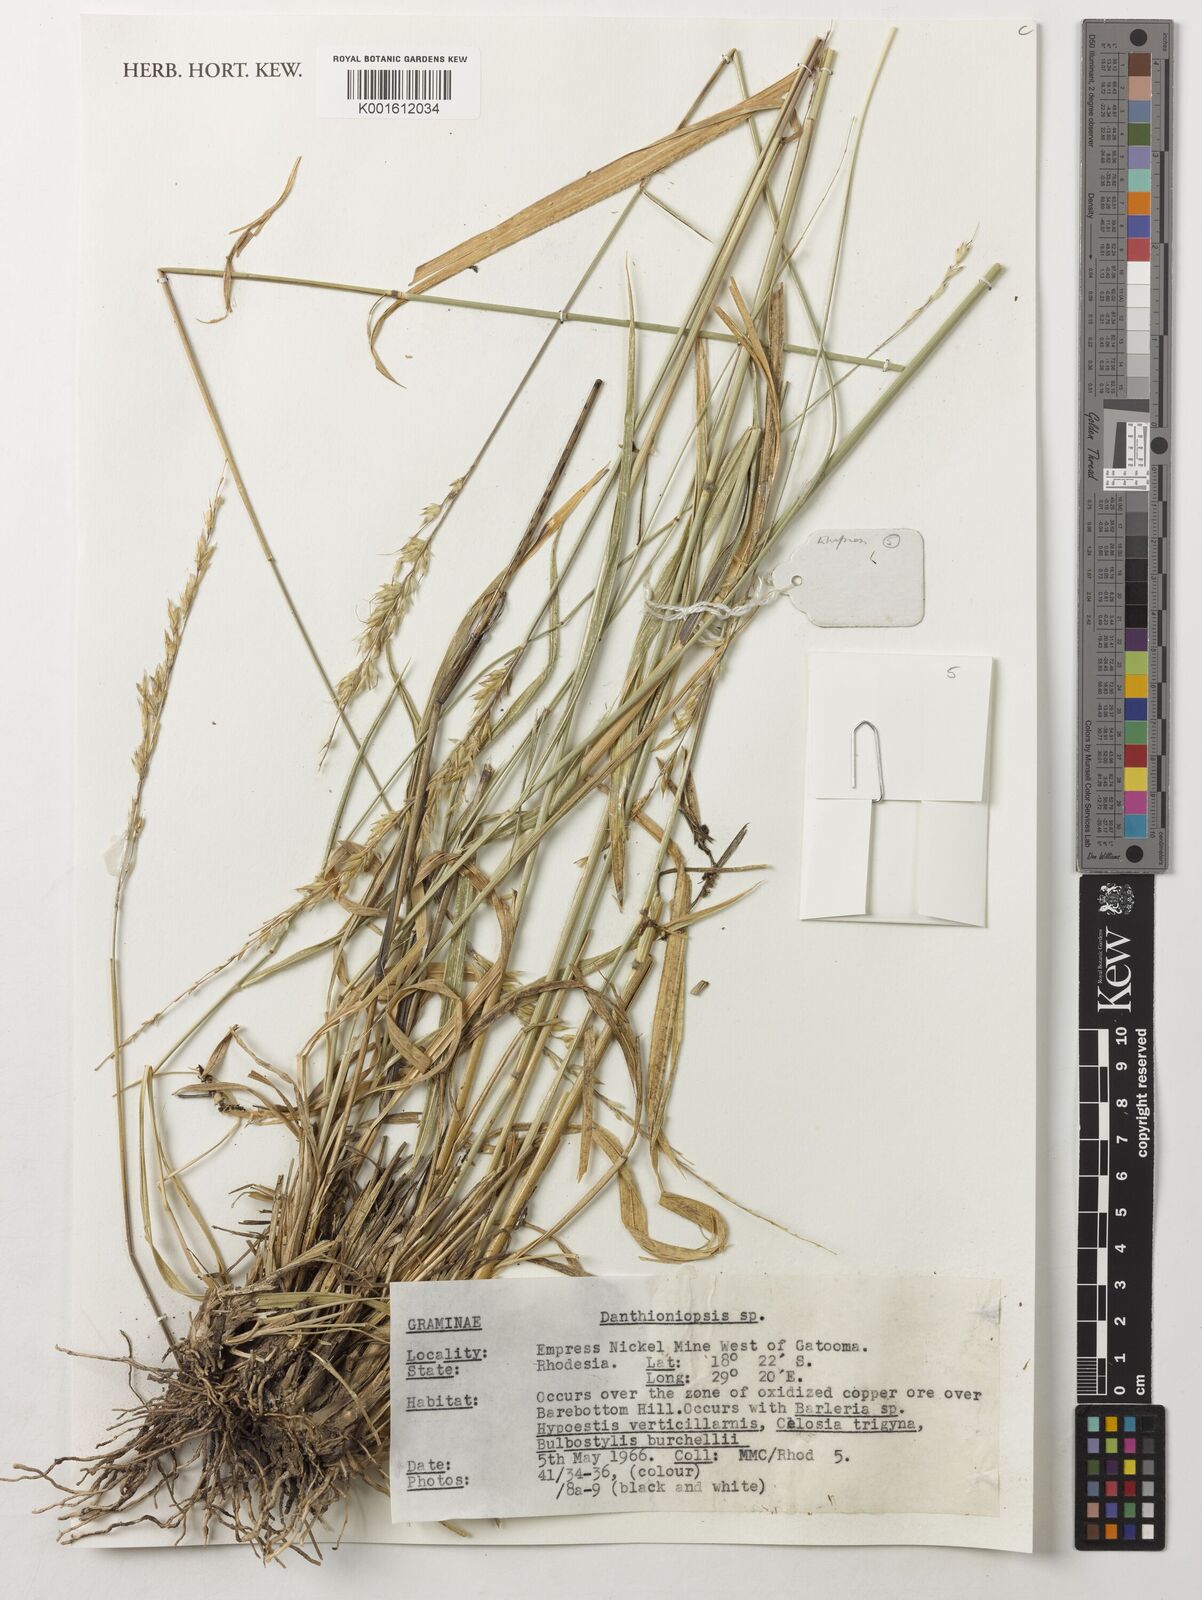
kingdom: Plantae
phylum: Tracheophyta
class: Liliopsida
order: Poales
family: Poaceae
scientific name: Poaceae
